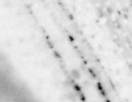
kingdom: Animalia
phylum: Chordata
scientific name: Chordata
